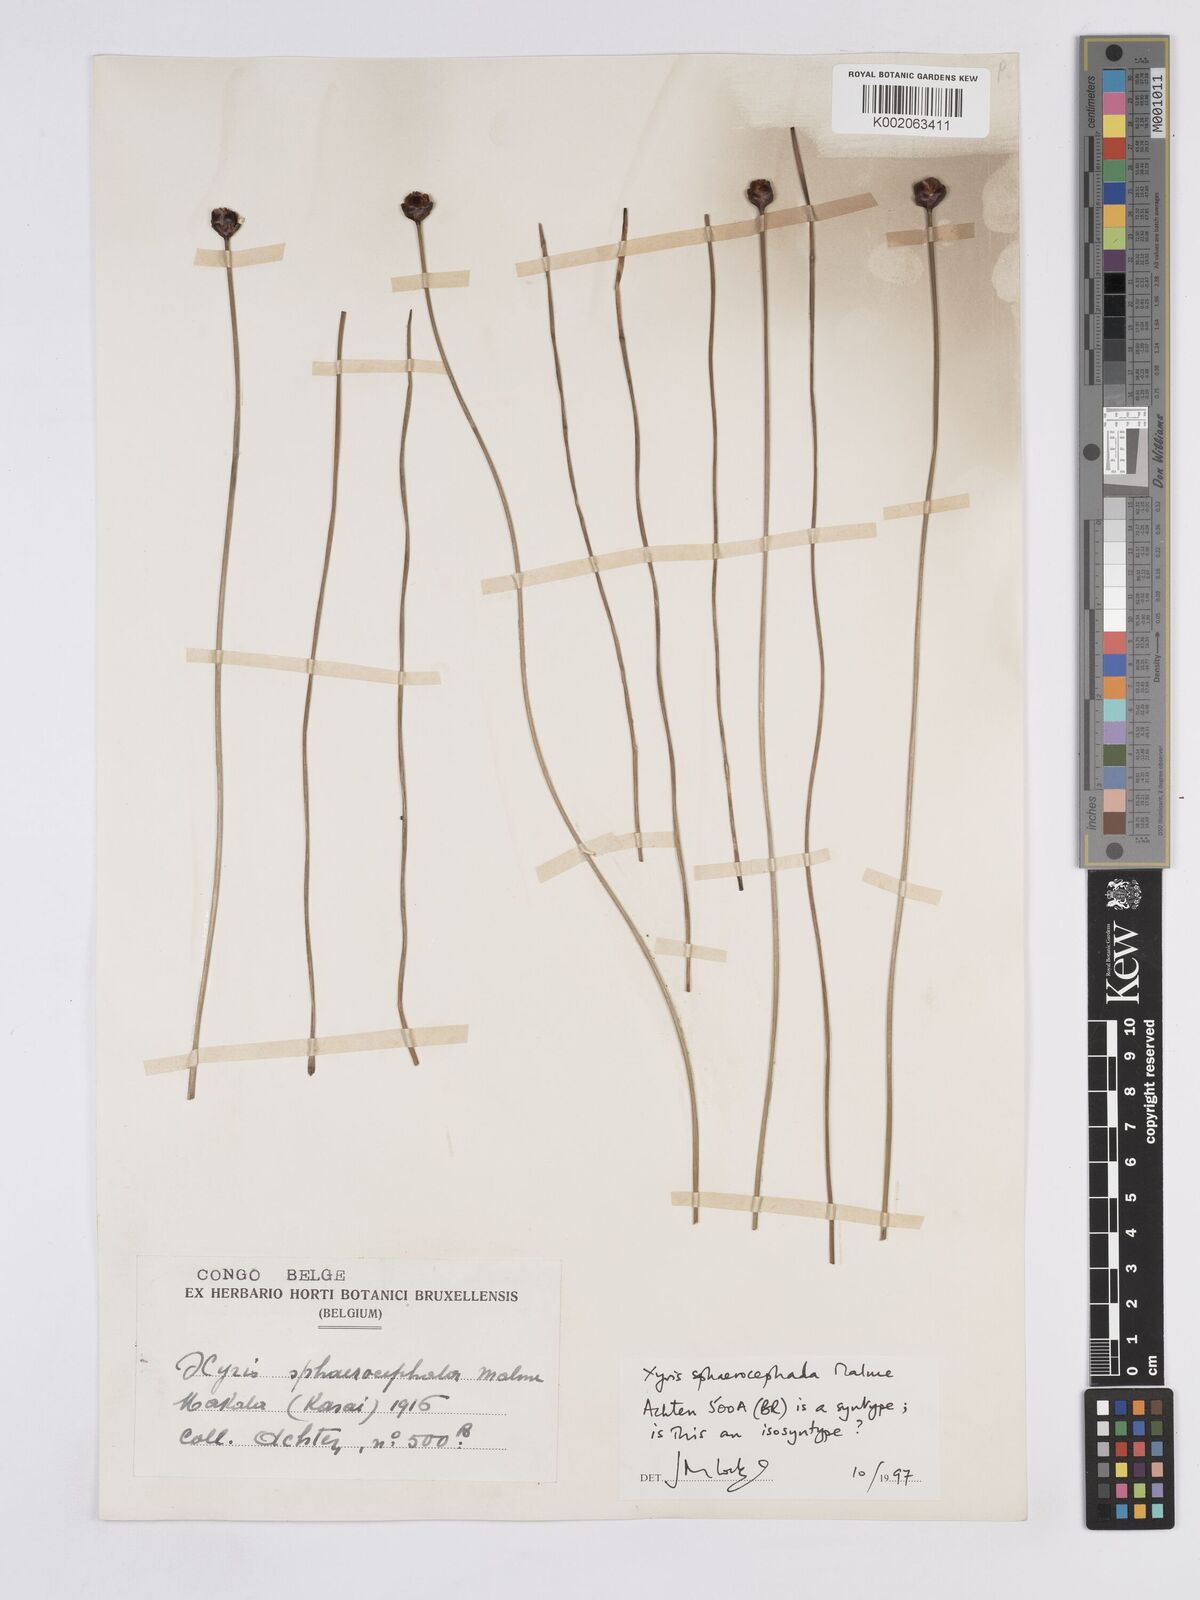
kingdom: Plantae
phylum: Tracheophyta
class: Liliopsida
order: Poales
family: Xyridaceae
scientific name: Xyridaceae
